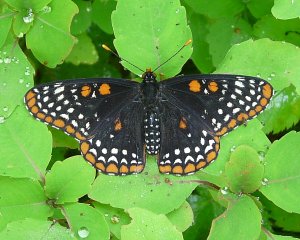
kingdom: Animalia
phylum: Arthropoda
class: Insecta
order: Lepidoptera
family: Nymphalidae
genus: Euphydryas
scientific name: Euphydryas phaeton
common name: Baltimore Checkerspot
